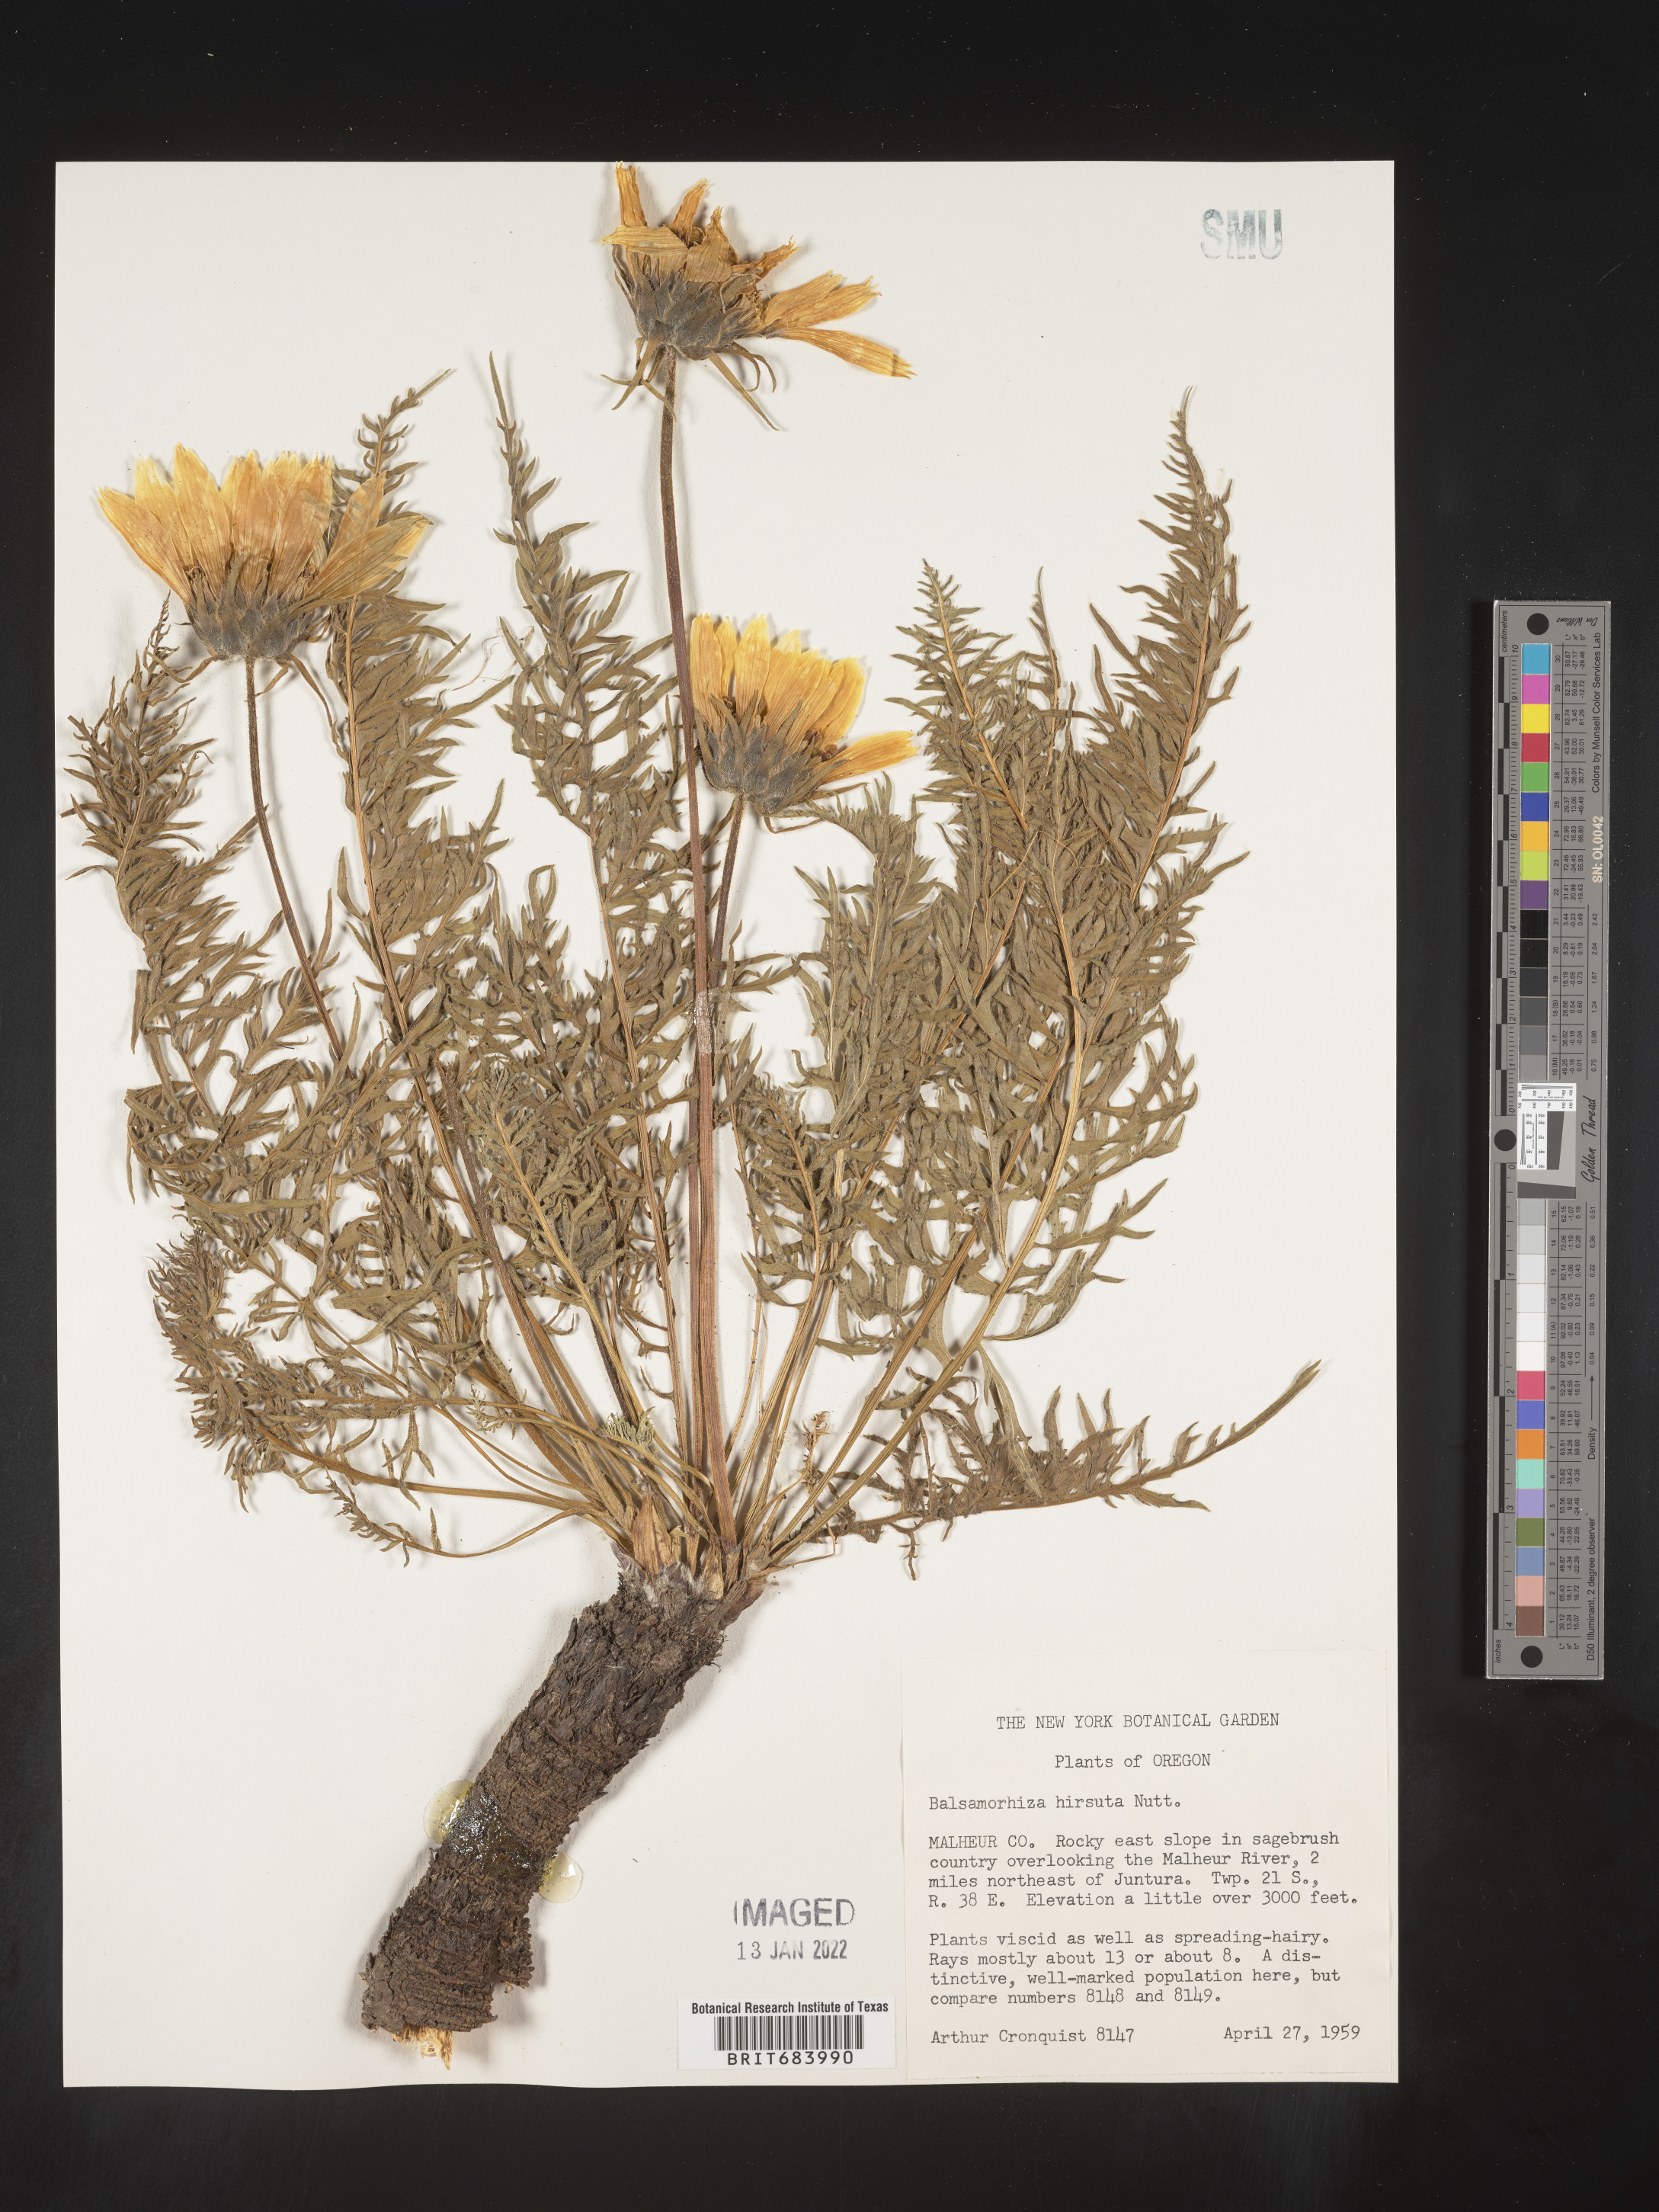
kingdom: Plantae
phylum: Tracheophyta
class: Magnoliopsida
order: Asterales
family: Asteraceae
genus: Balsamorhiza
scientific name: Balsamorhiza hookeri
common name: Hooker's balsamroot
